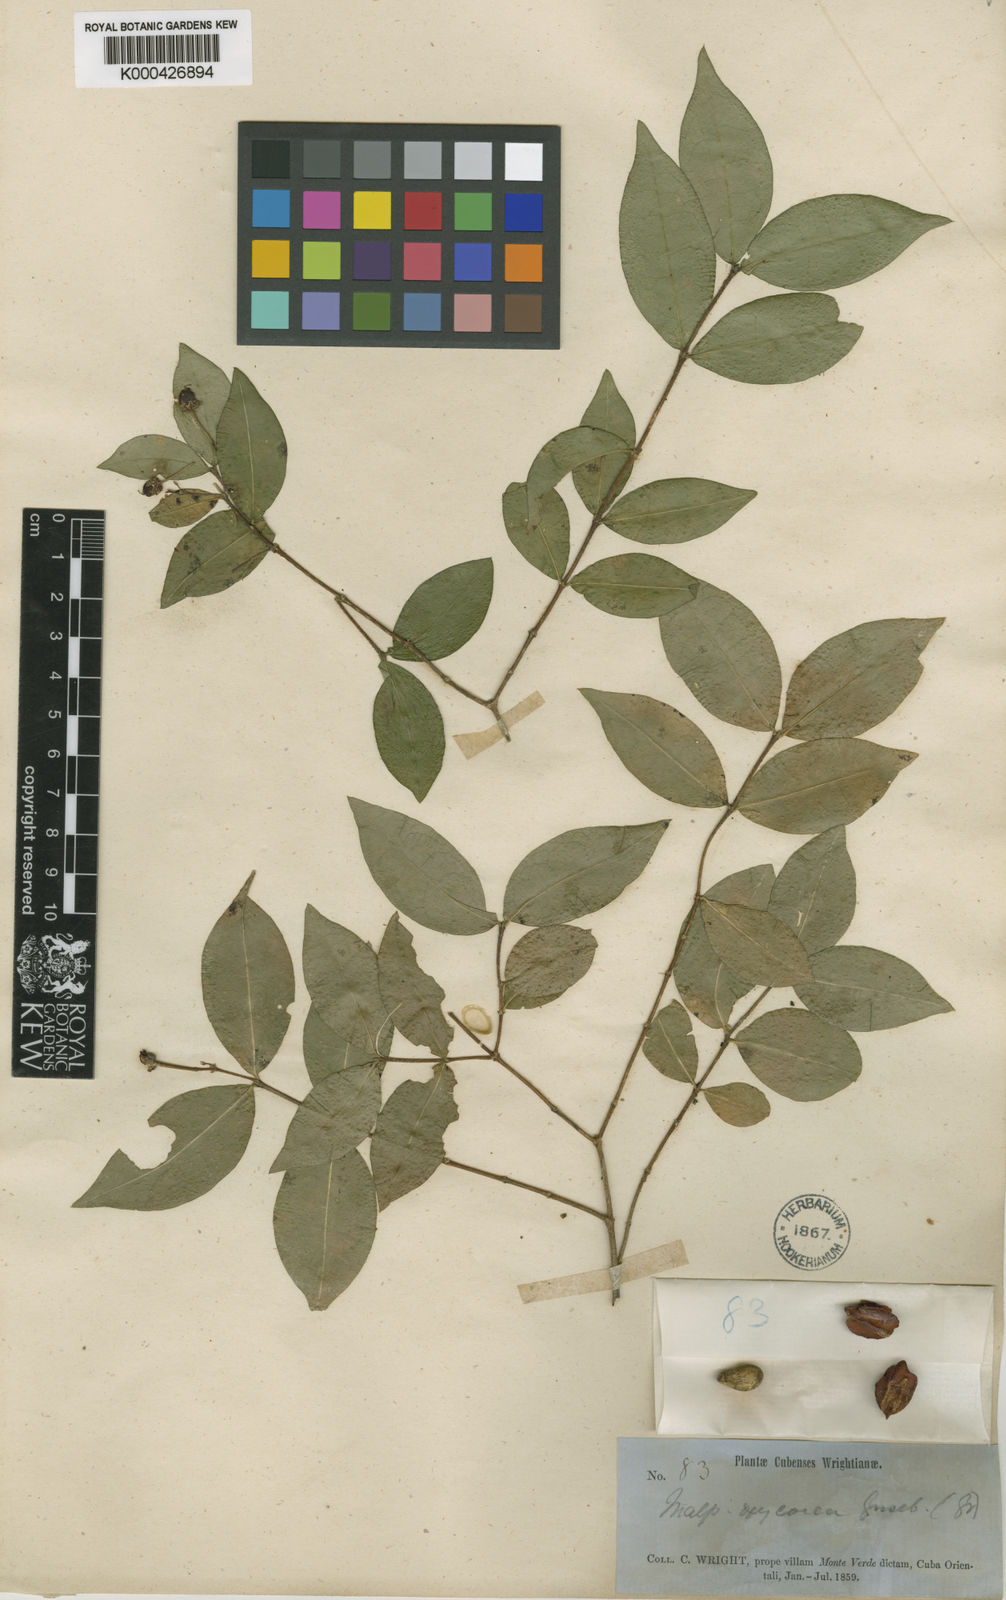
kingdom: Plantae
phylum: Tracheophyta
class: Magnoliopsida
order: Malpighiales
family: Malpighiaceae
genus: Malpighia
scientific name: Malpighia glabra
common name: Barbados cherry
